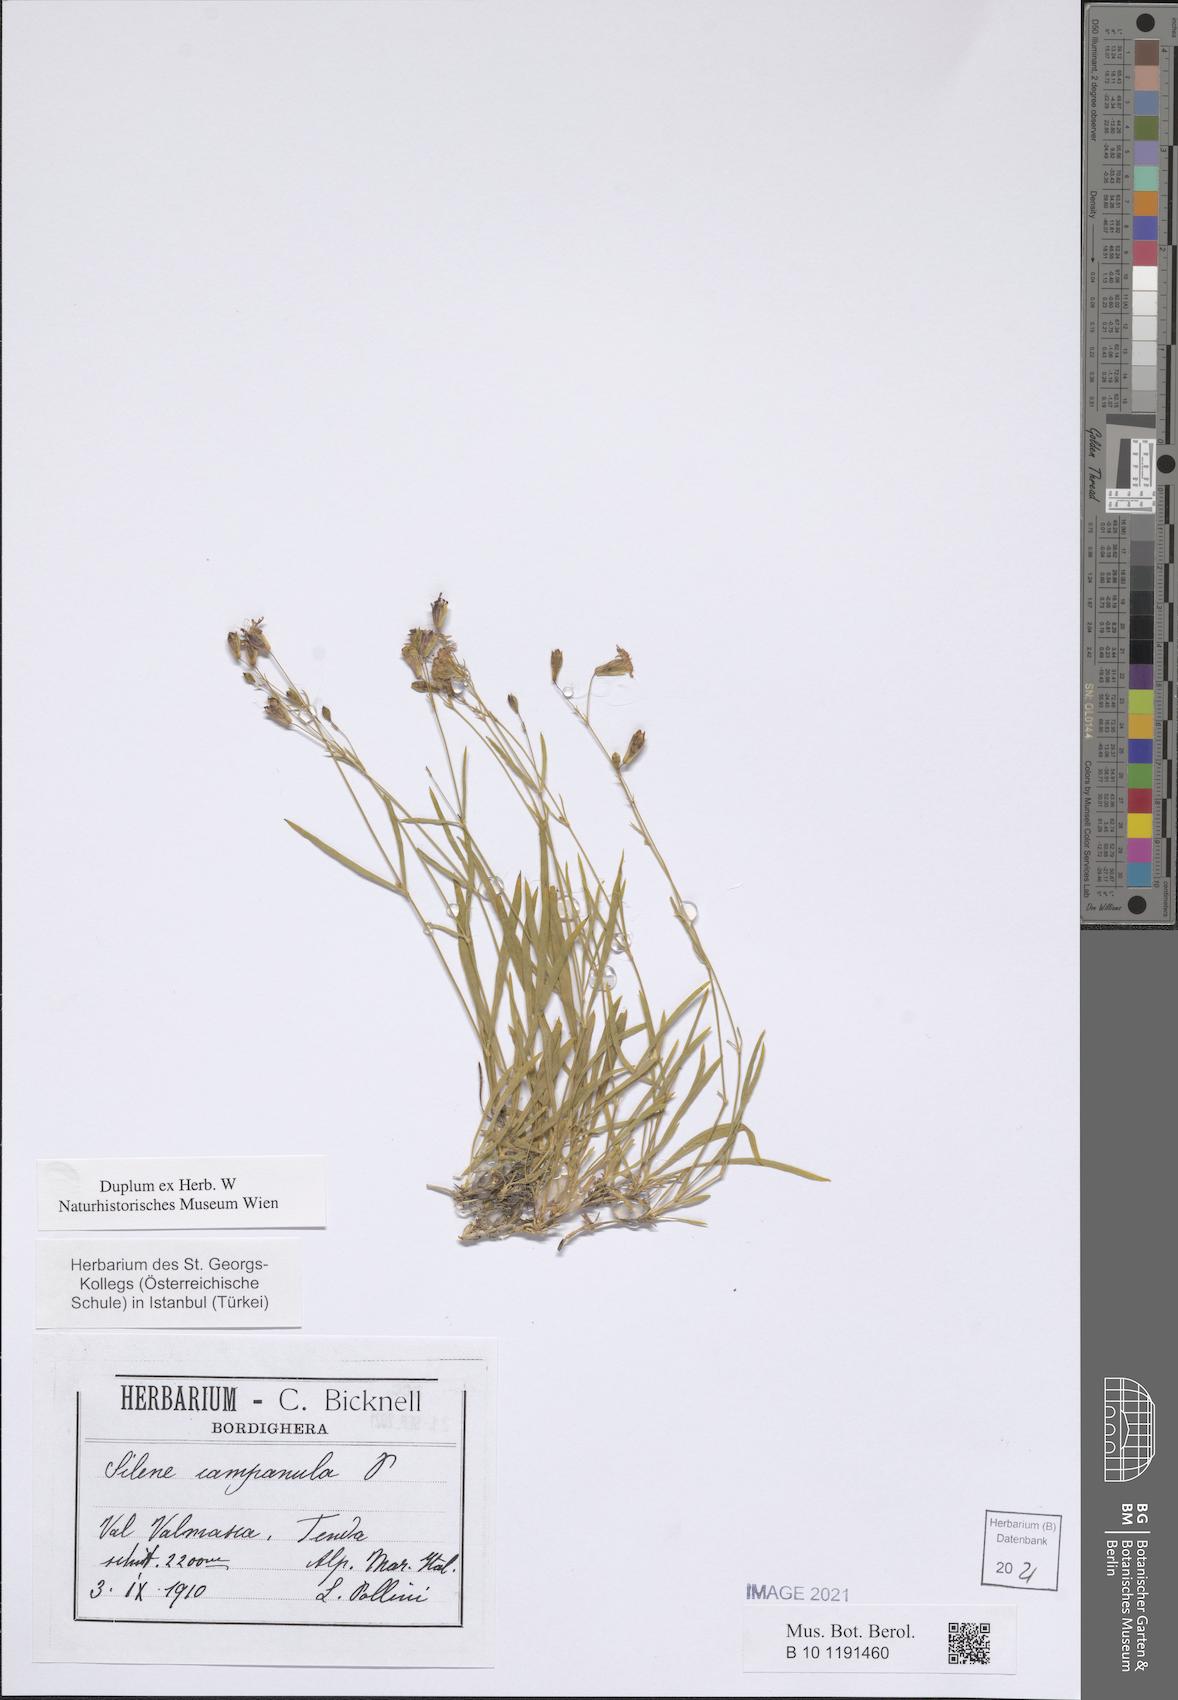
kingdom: Plantae
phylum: Tracheophyta
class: Magnoliopsida
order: Caryophyllales
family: Caryophyllaceae
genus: Silene
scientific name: Silene campanula
